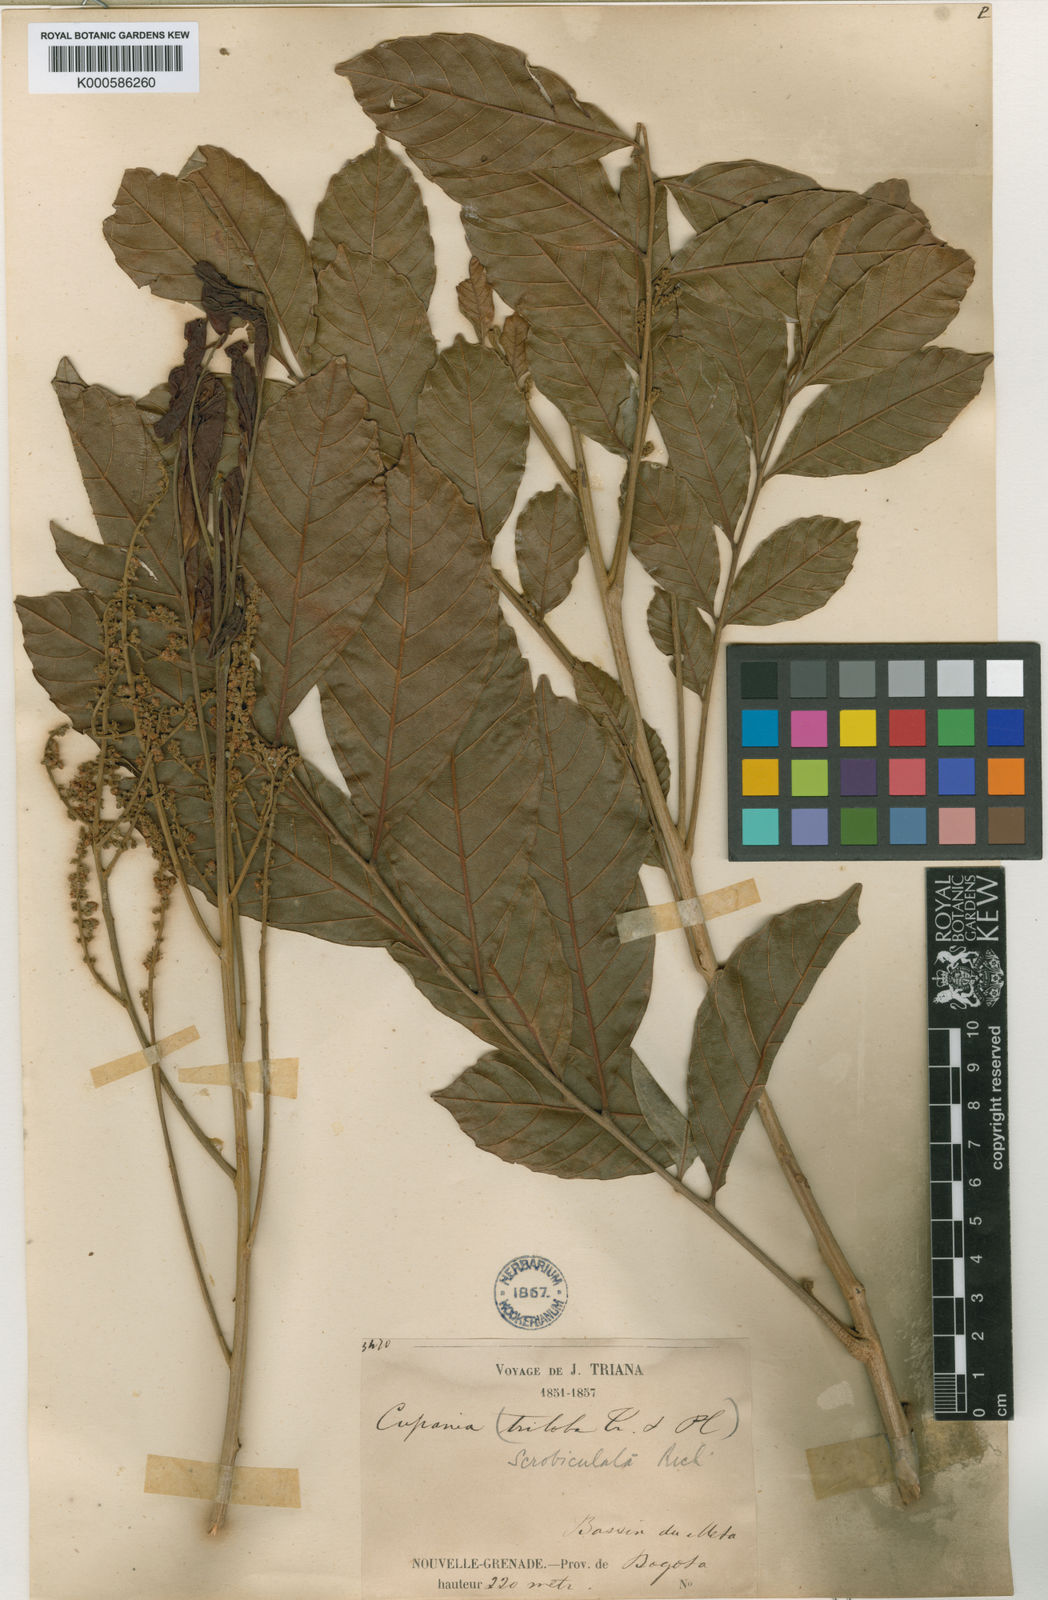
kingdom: Plantae
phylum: Tracheophyta
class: Magnoliopsida
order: Sapindales
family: Sapindaceae
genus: Cupania
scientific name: Cupania scrobiculata
